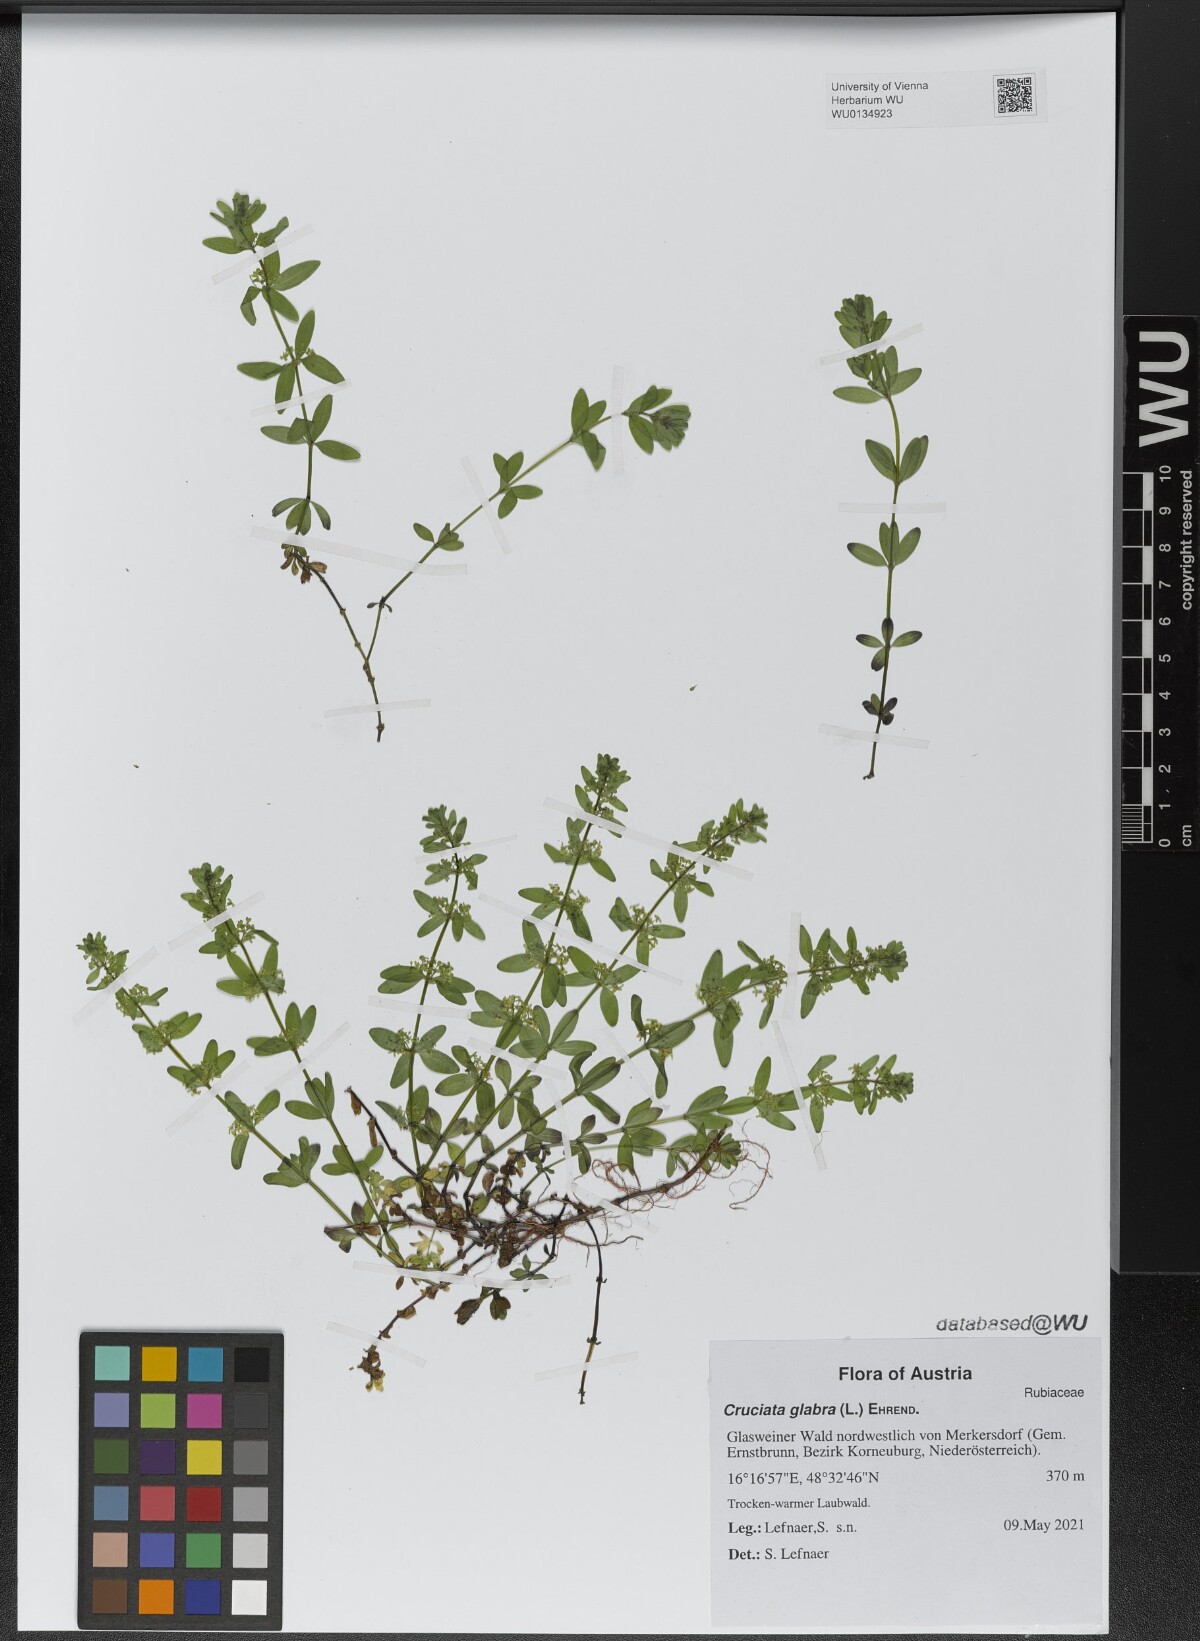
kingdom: Plantae
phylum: Tracheophyta
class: Magnoliopsida
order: Gentianales
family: Rubiaceae
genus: Cruciata
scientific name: Cruciata glabra
